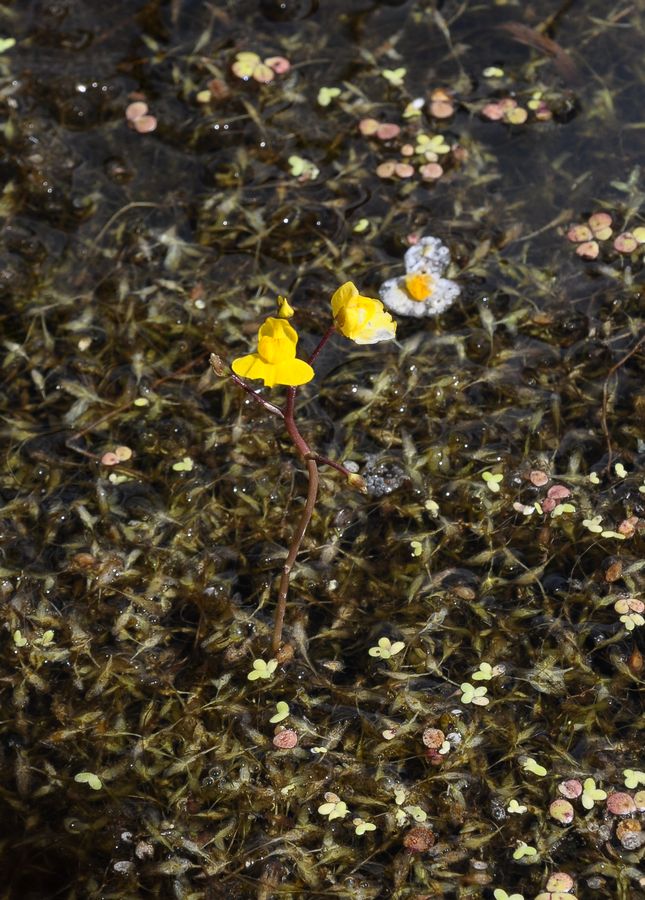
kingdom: Plantae
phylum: Tracheophyta
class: Magnoliopsida
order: Lamiales
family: Lentibulariaceae
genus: Utricularia
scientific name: Utricularia australis
